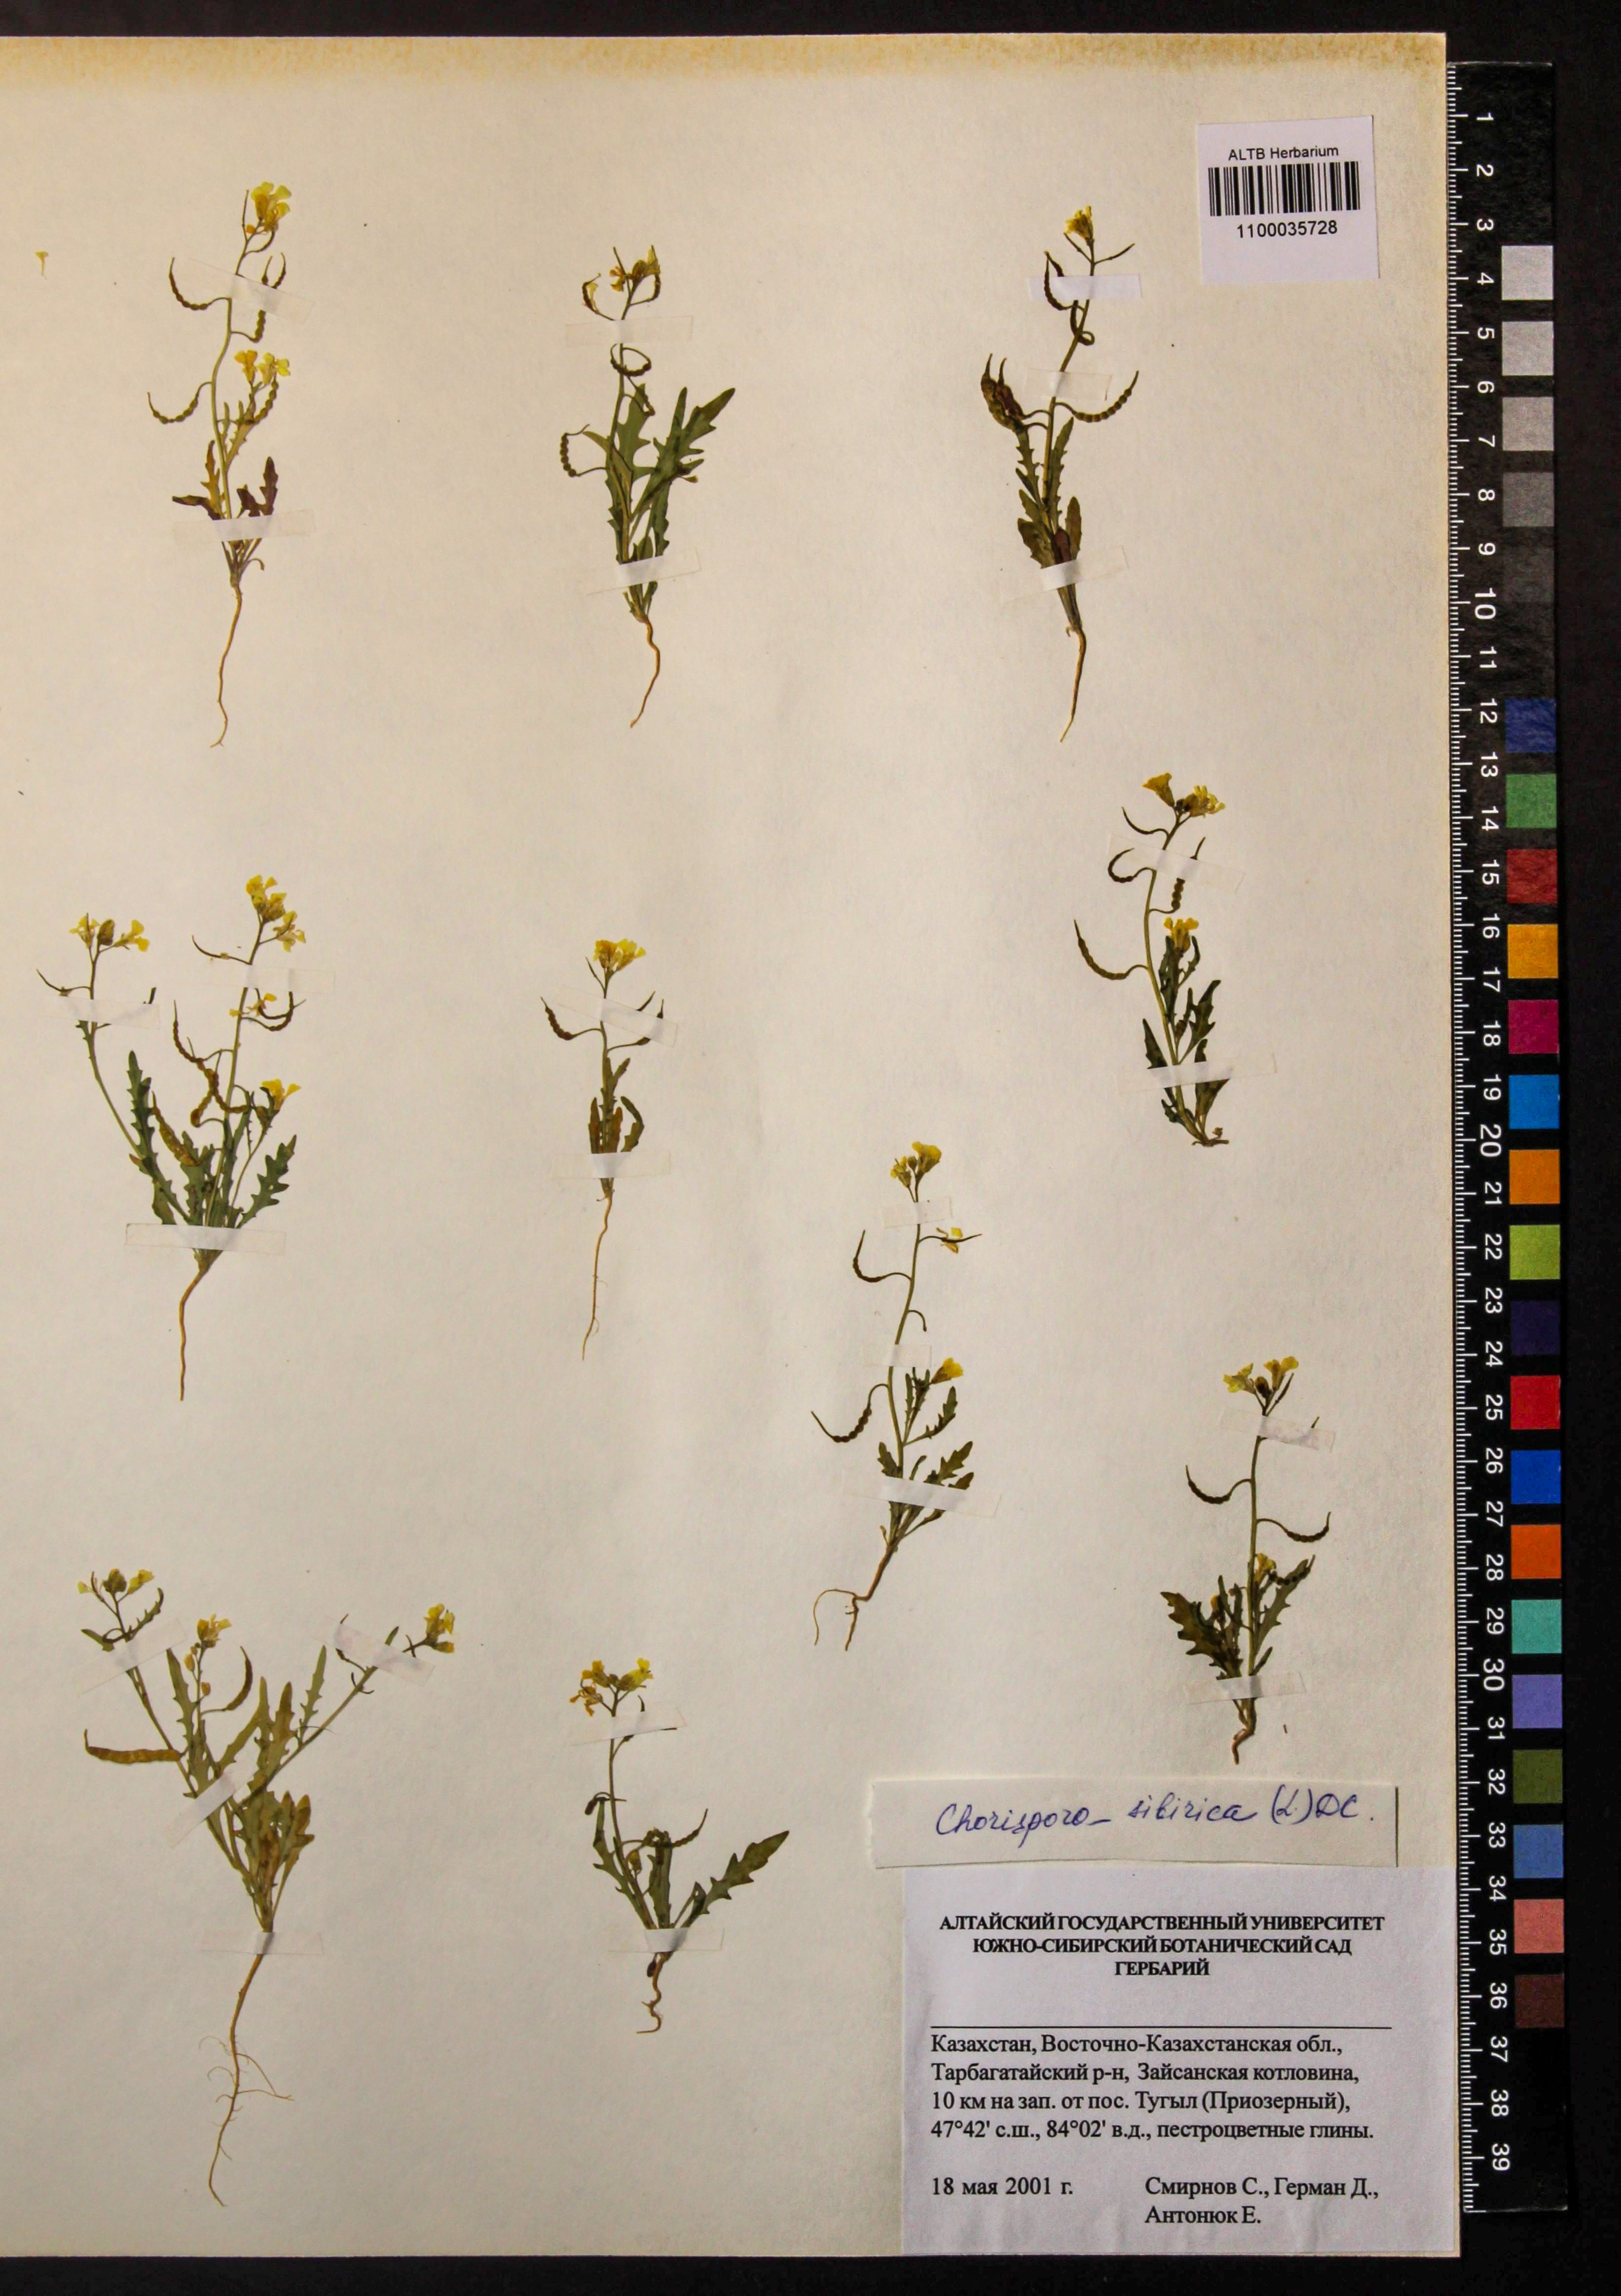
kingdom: Plantae
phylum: Tracheophyta
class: Magnoliopsida
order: Brassicales
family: Brassicaceae
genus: Chorispora
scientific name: Chorispora sibirica
